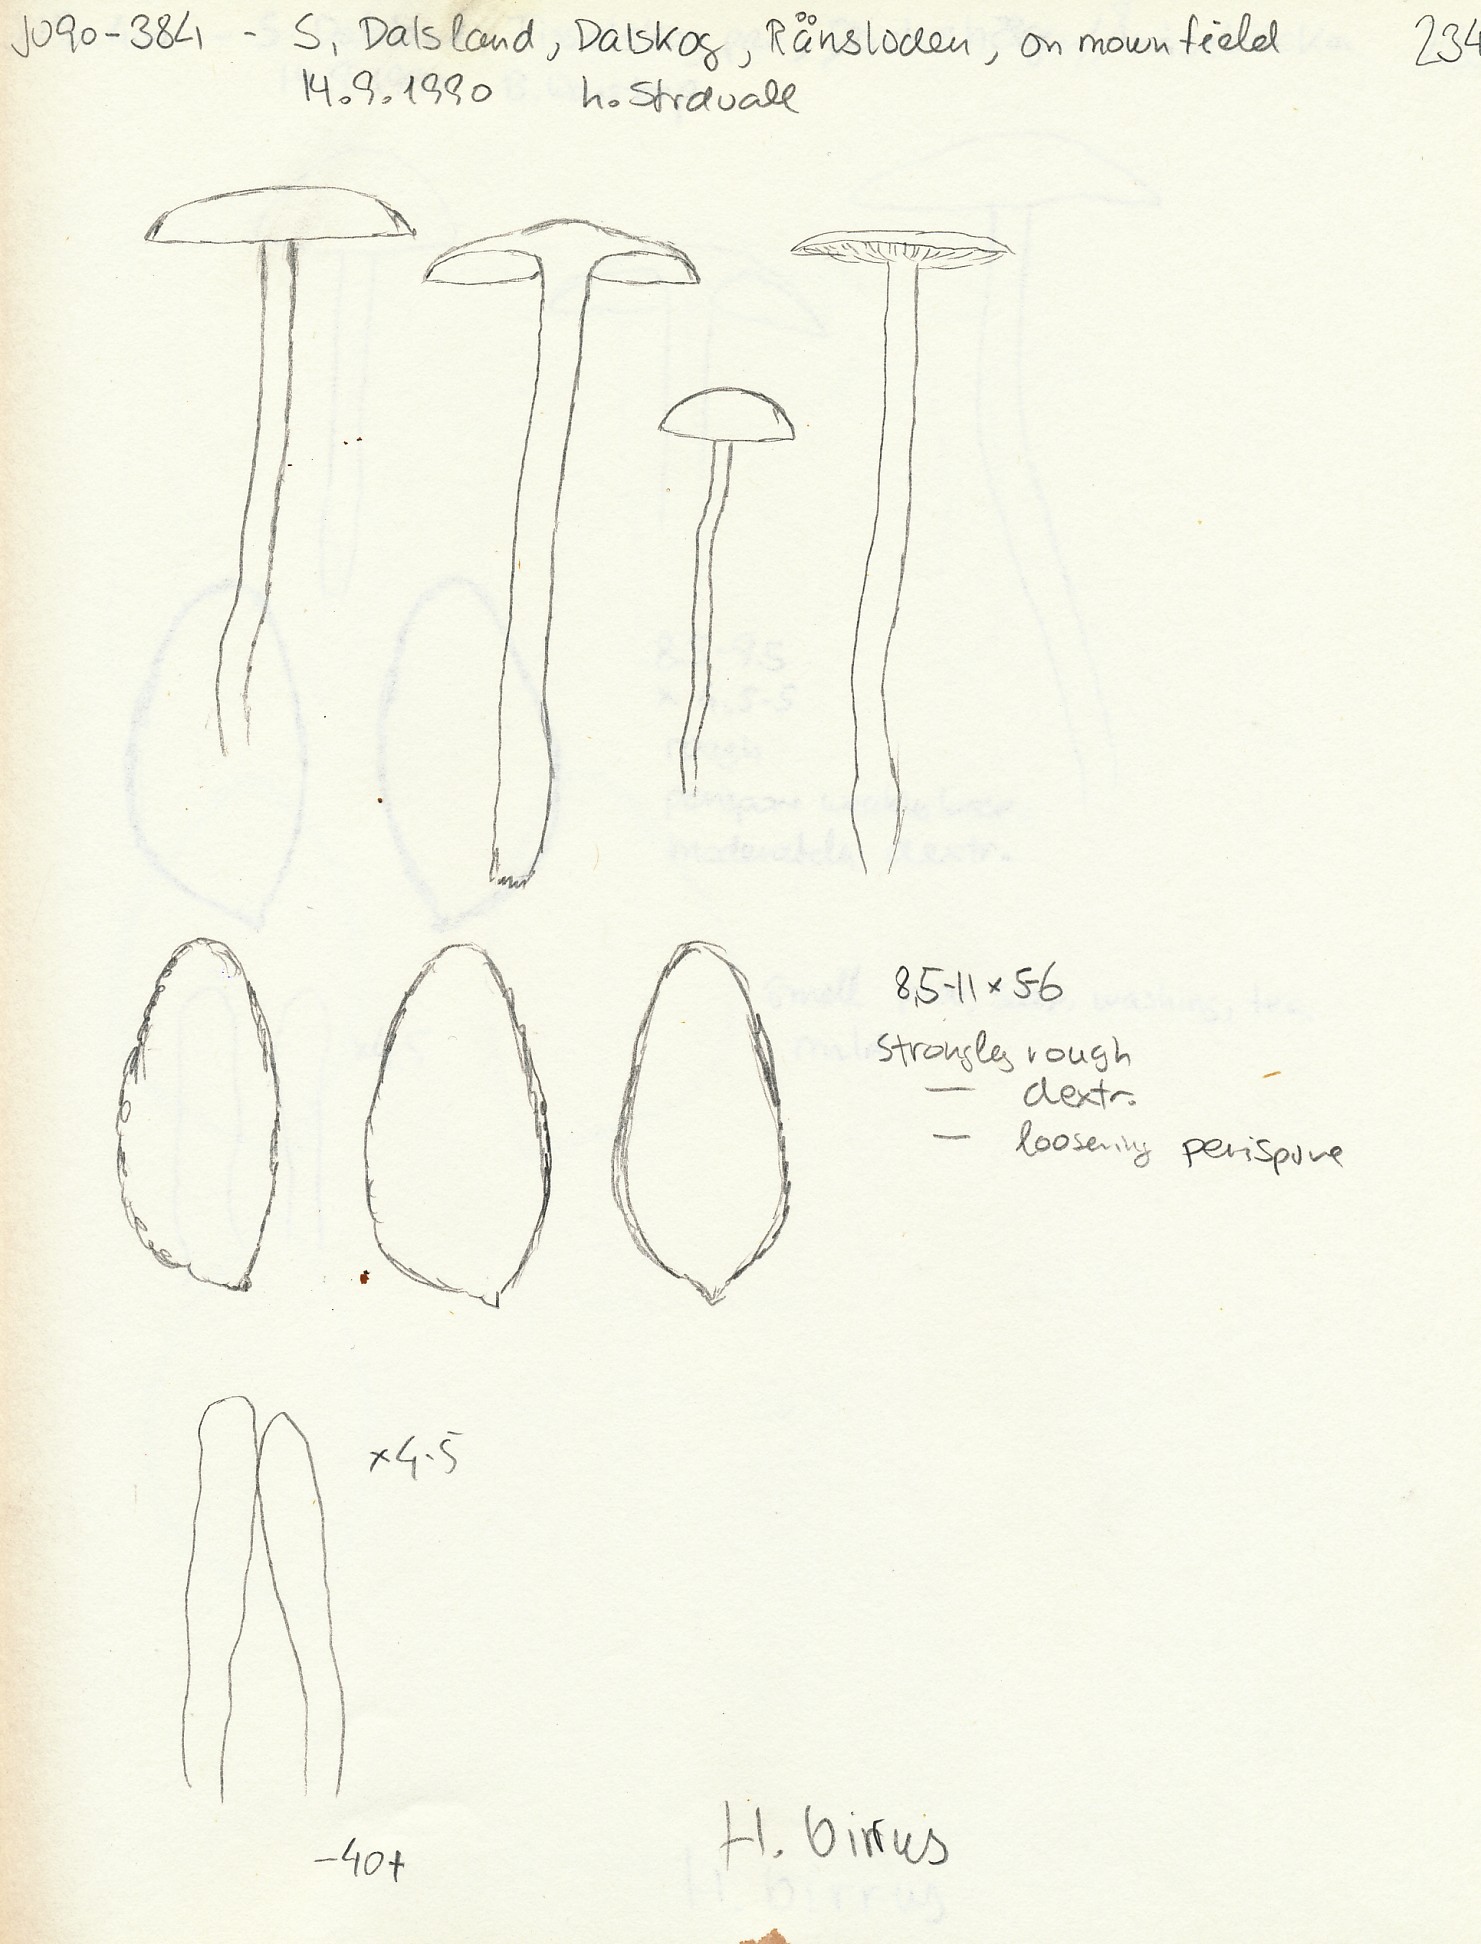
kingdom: Fungi
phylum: Basidiomycota
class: Agaricomycetes
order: Agaricales
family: Tricholomataceae
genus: Tricholoma
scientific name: Tricholoma atrosquamosum
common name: sortskællet ridderhat
